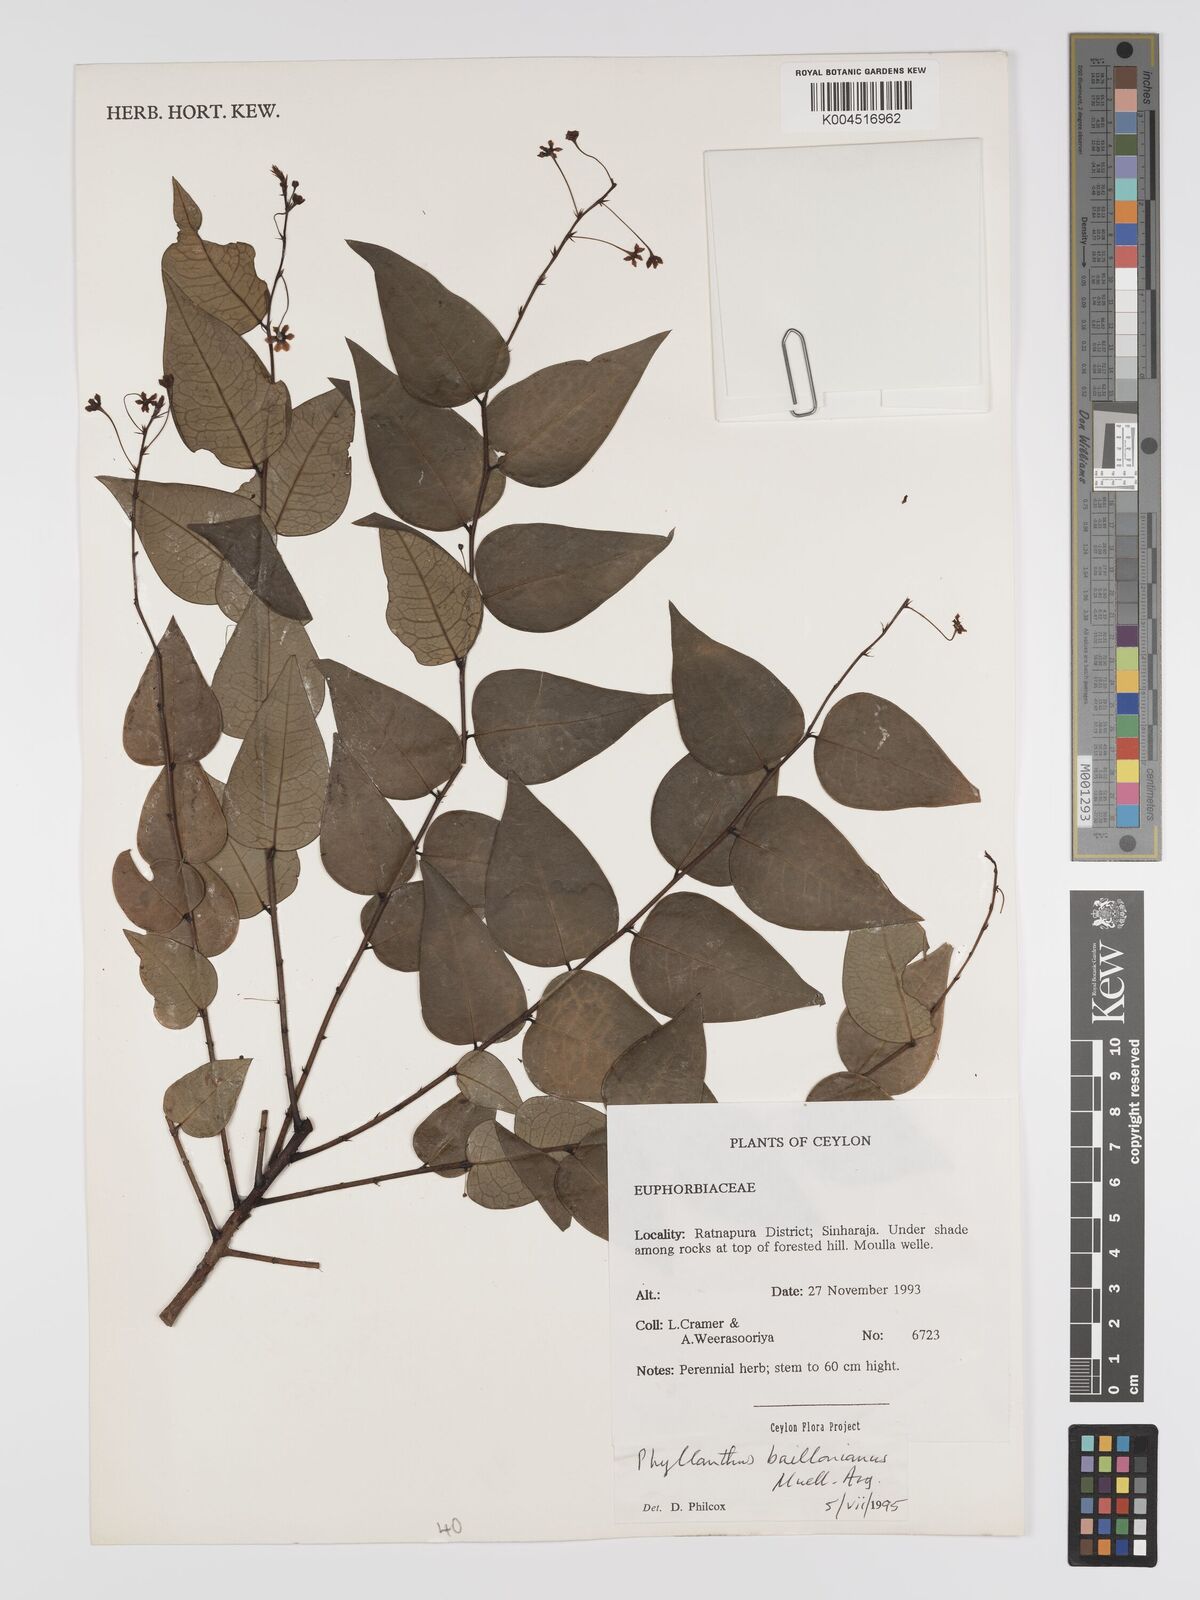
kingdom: Plantae
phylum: Tracheophyta
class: Magnoliopsida
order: Malpighiales
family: Phyllanthaceae
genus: Phyllanthus
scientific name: Phyllanthus baillonianus
